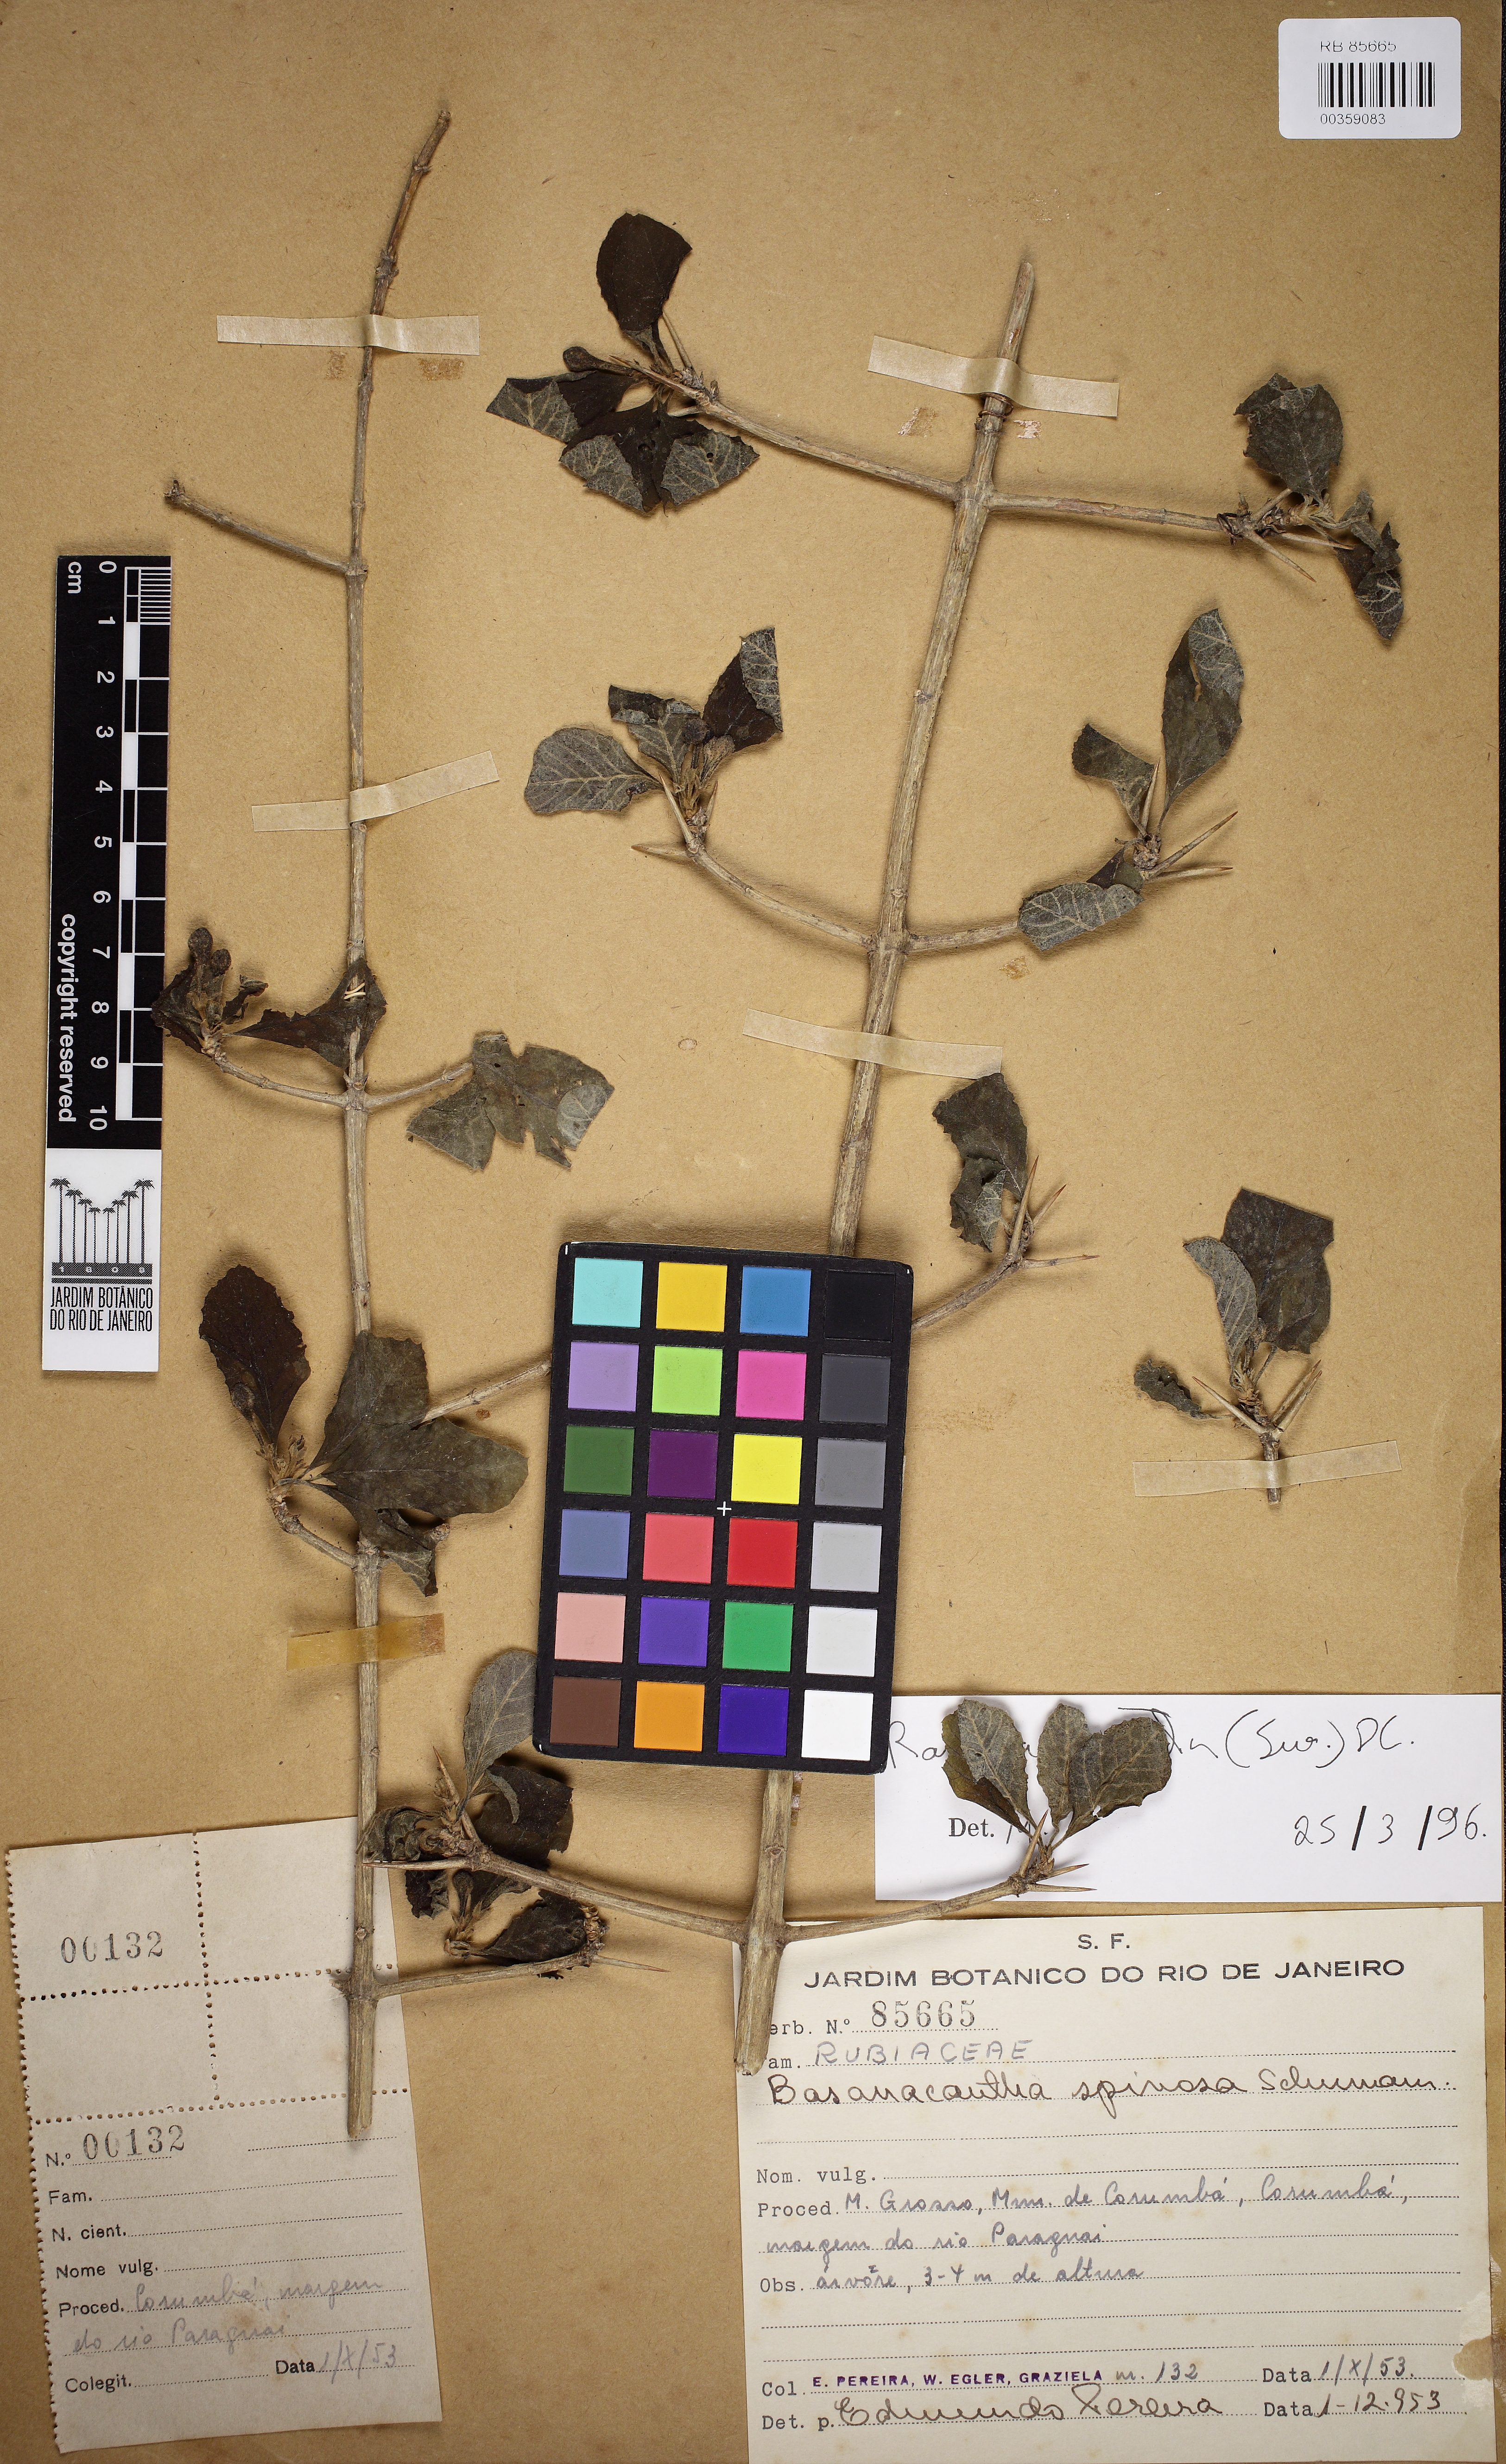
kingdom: Plantae
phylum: Tracheophyta
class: Magnoliopsida
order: Gentianales
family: Rubiaceae
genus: Randia
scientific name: Randia armata
